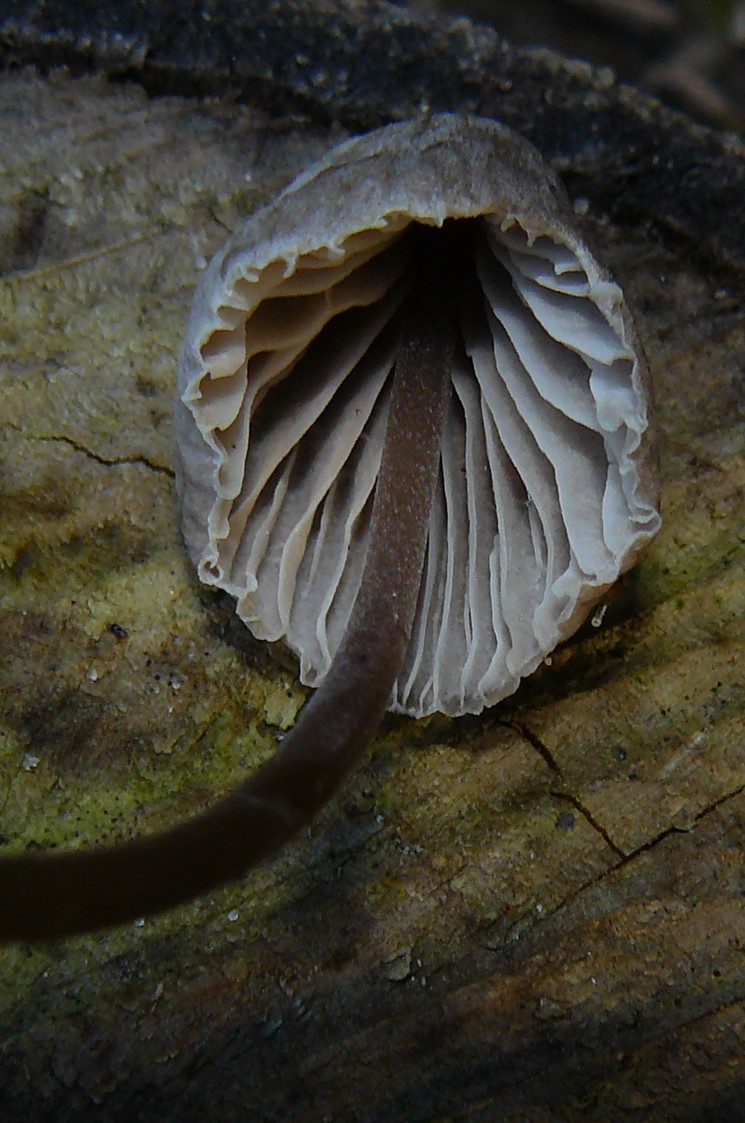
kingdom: Fungi
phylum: Basidiomycota
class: Agaricomycetes
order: Agaricales
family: Mycenaceae
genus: Mycena
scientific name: Mycena leptocephala
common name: klor-huesvamp
